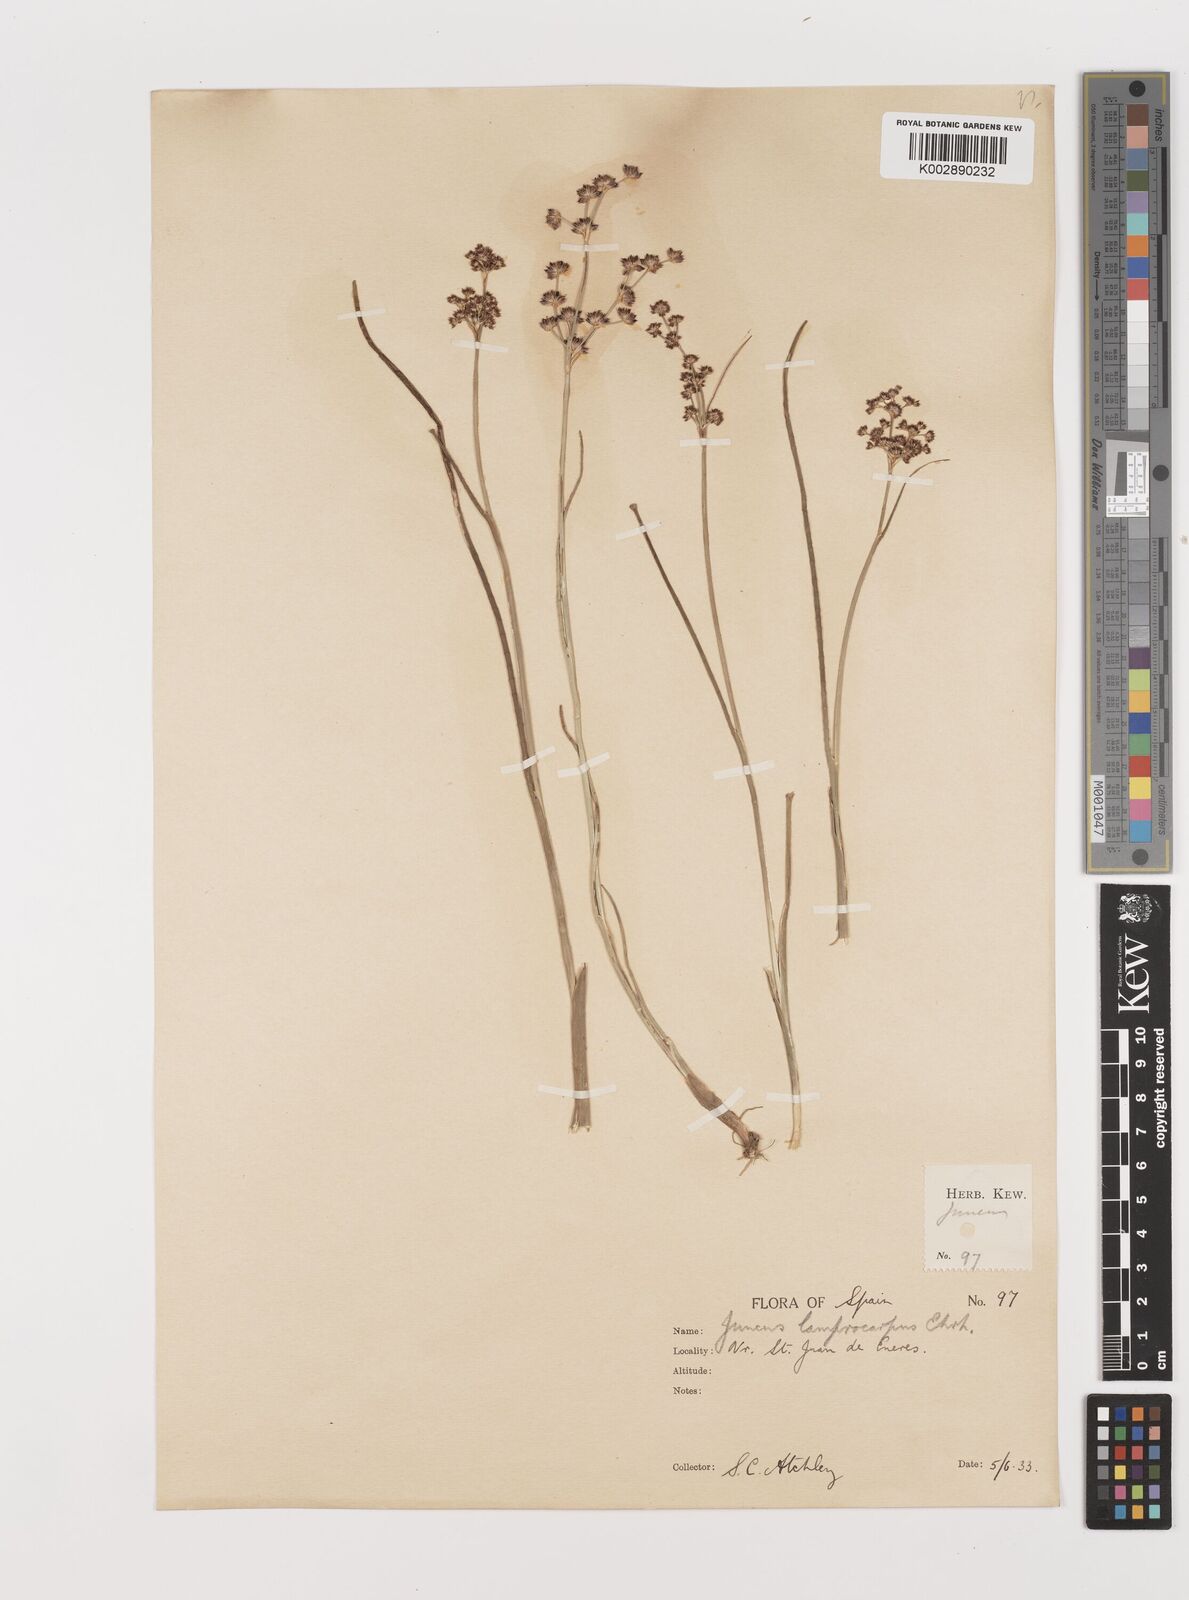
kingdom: Plantae
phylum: Tracheophyta
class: Liliopsida
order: Poales
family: Juncaceae
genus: Juncus
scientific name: Juncus articulatus
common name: Jointed rush
